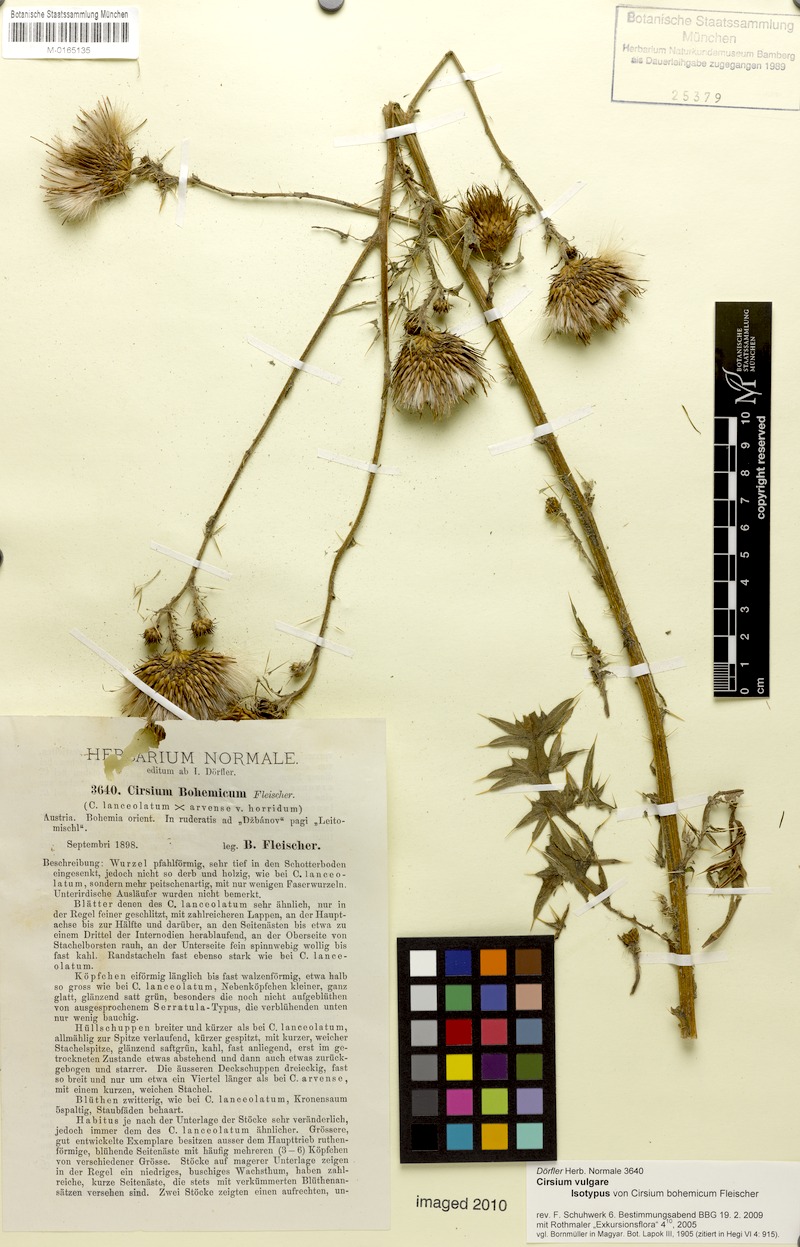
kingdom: Plantae
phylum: Tracheophyta
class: Magnoliopsida
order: Asterales
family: Asteraceae
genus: Cirsium
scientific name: Cirsium vulgare
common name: Bull thistle
